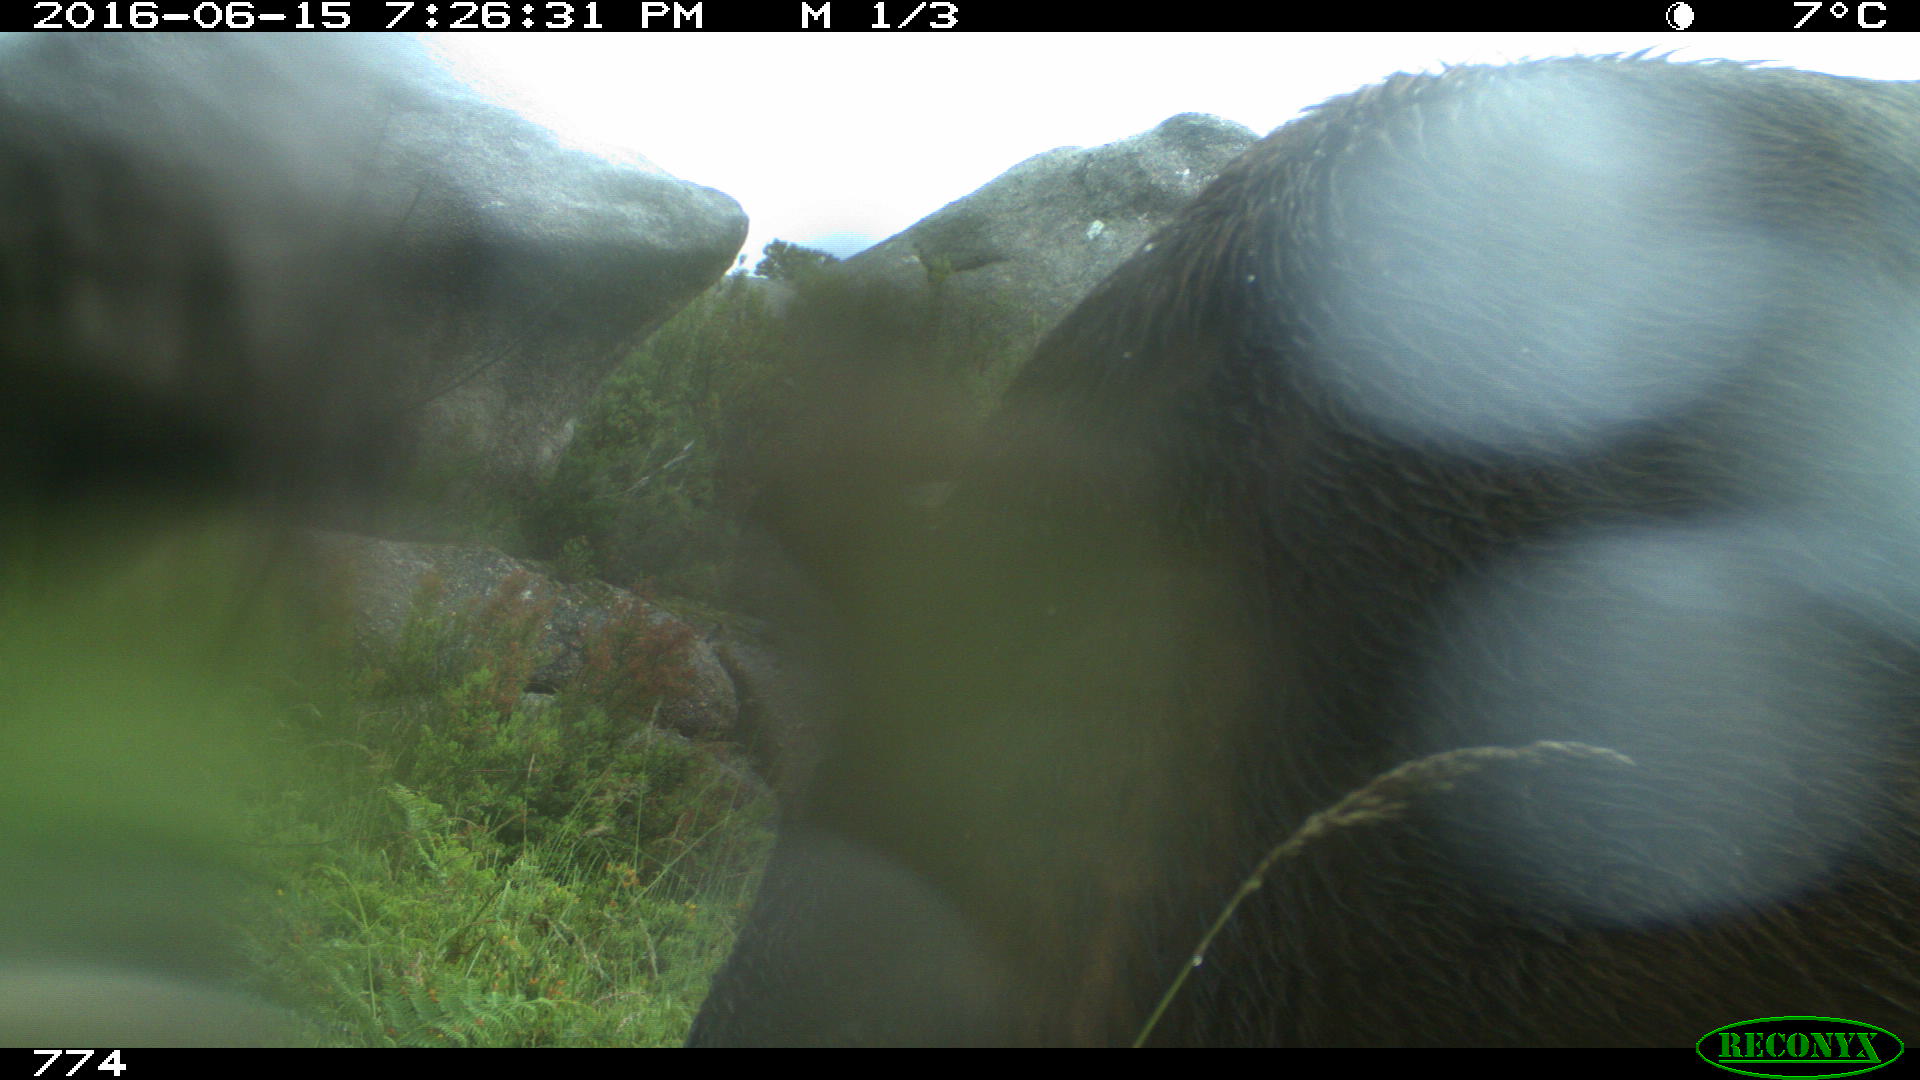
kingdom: Animalia
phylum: Chordata
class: Mammalia
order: Artiodactyla
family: Bovidae
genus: Bos
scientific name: Bos taurus
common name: Domesticated cattle
